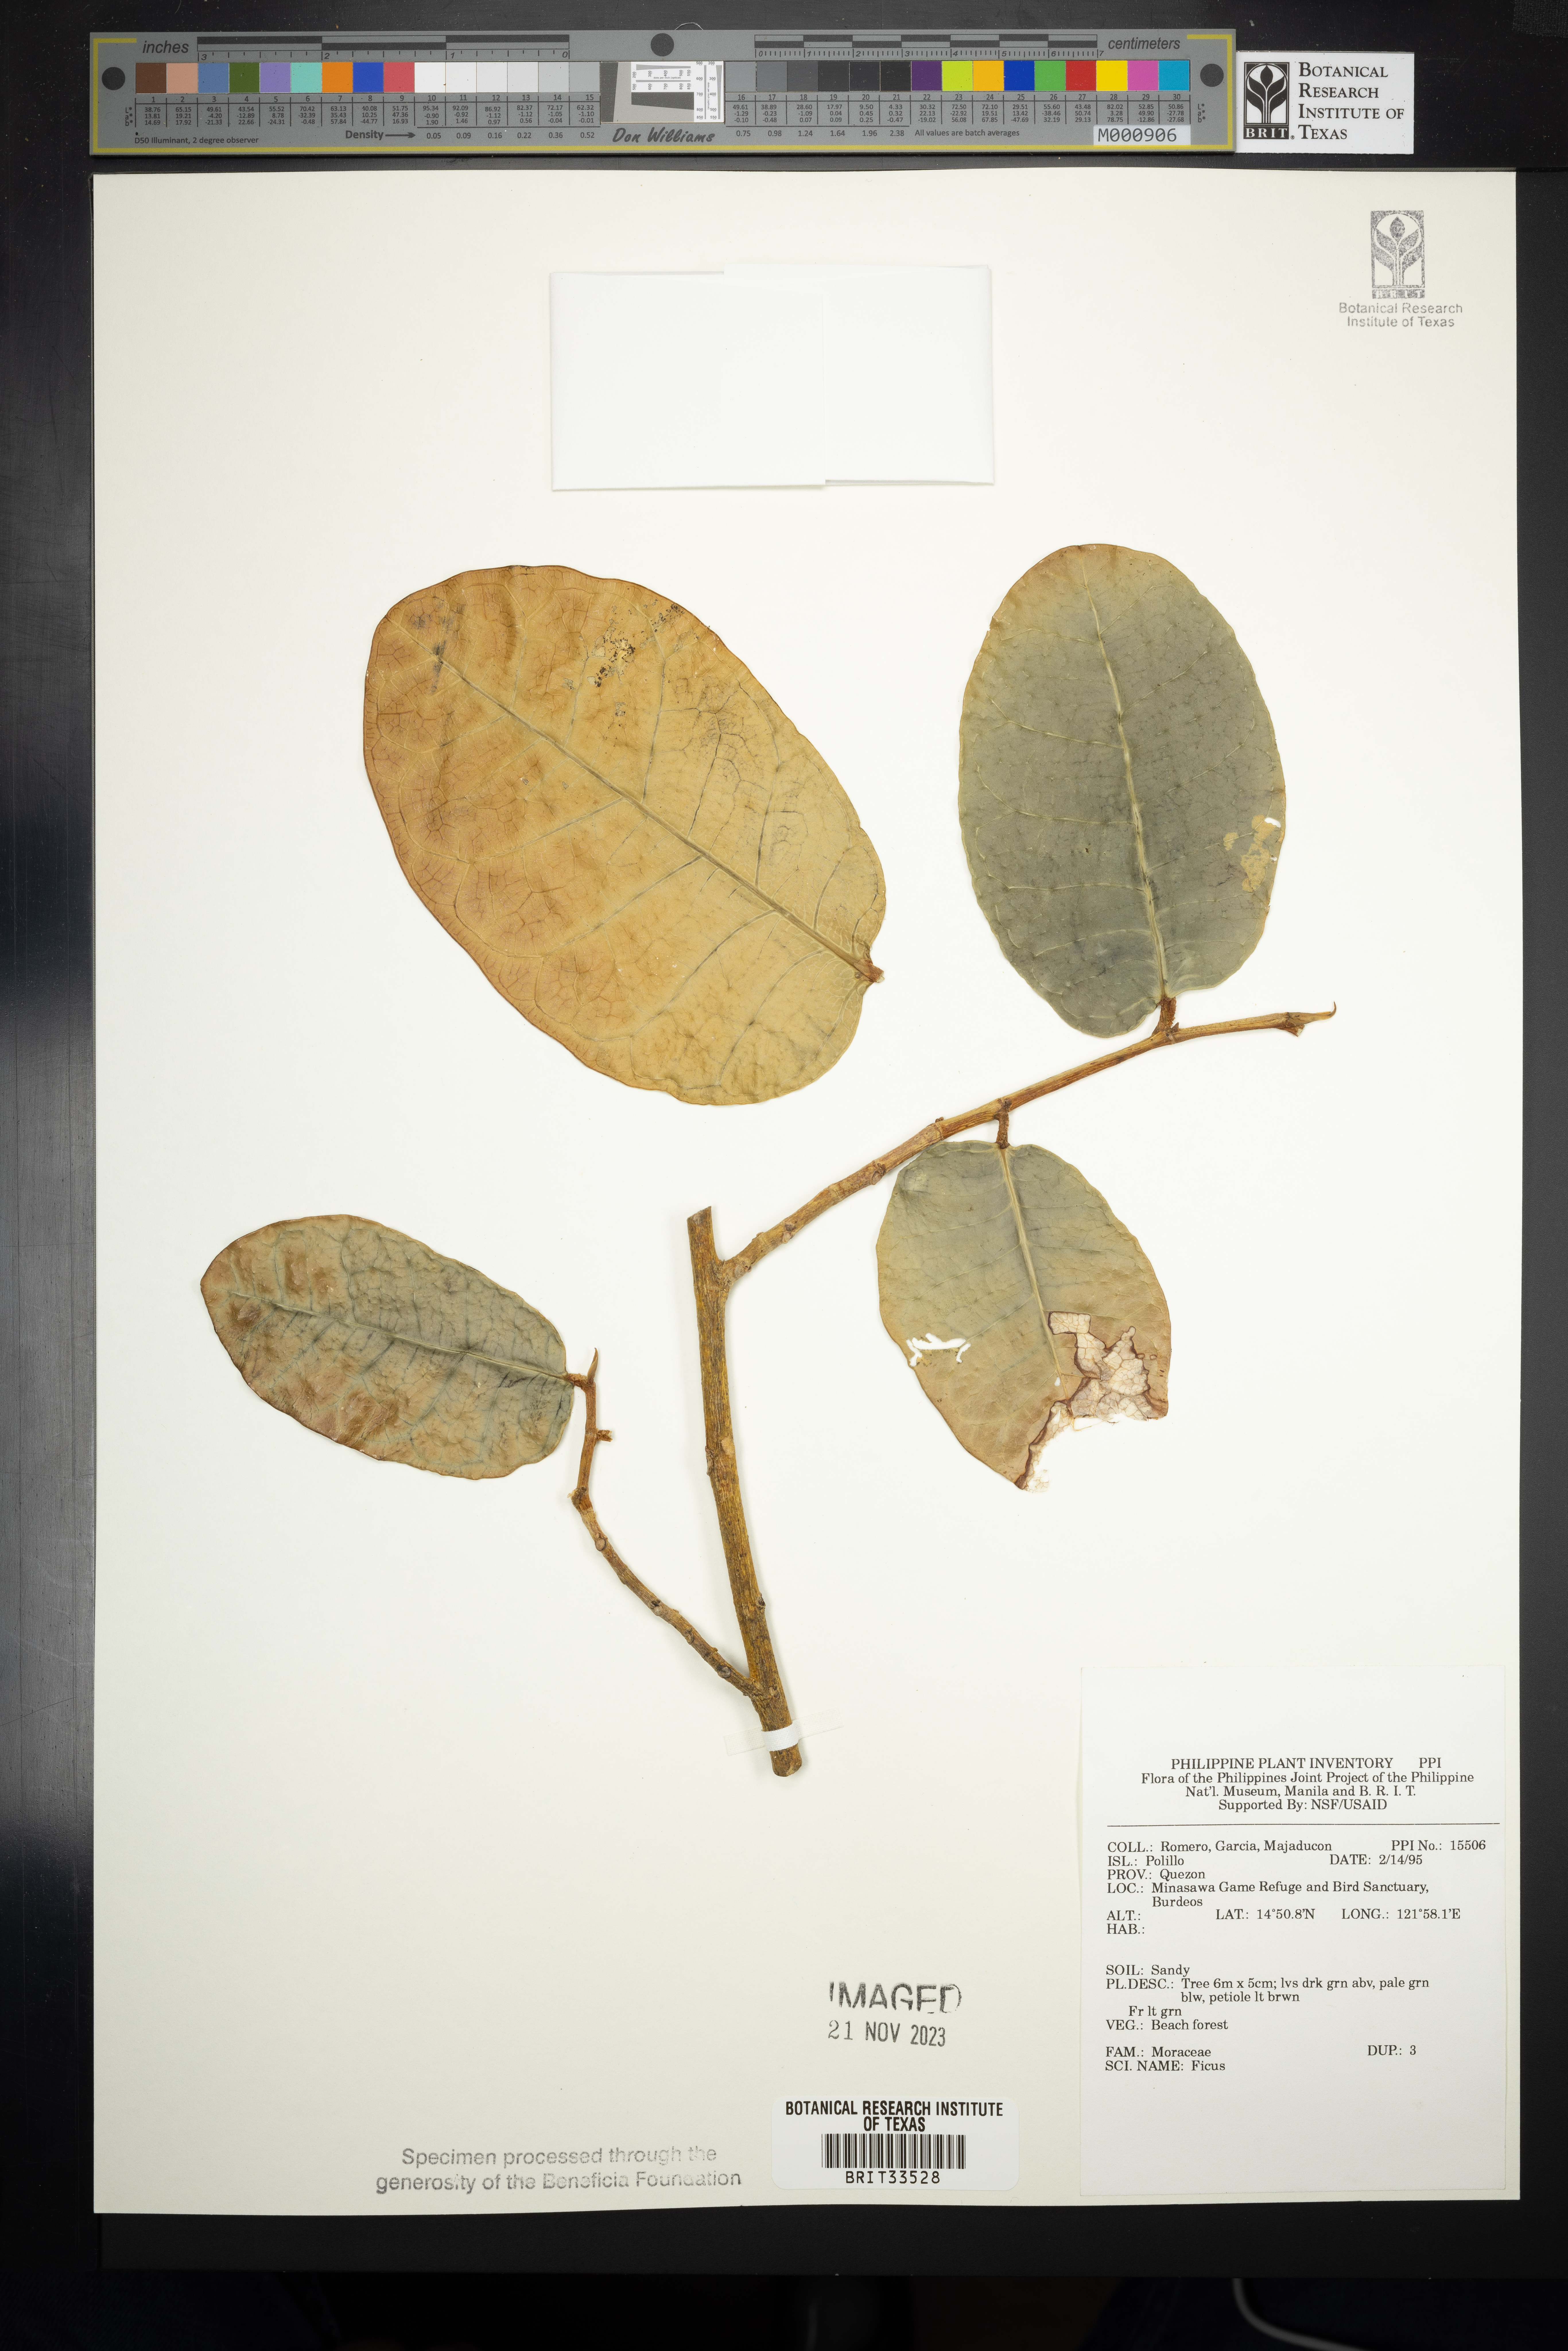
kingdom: Plantae
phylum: Tracheophyta
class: Magnoliopsida
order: Rosales
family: Moraceae
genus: Ficus
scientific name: Ficus
